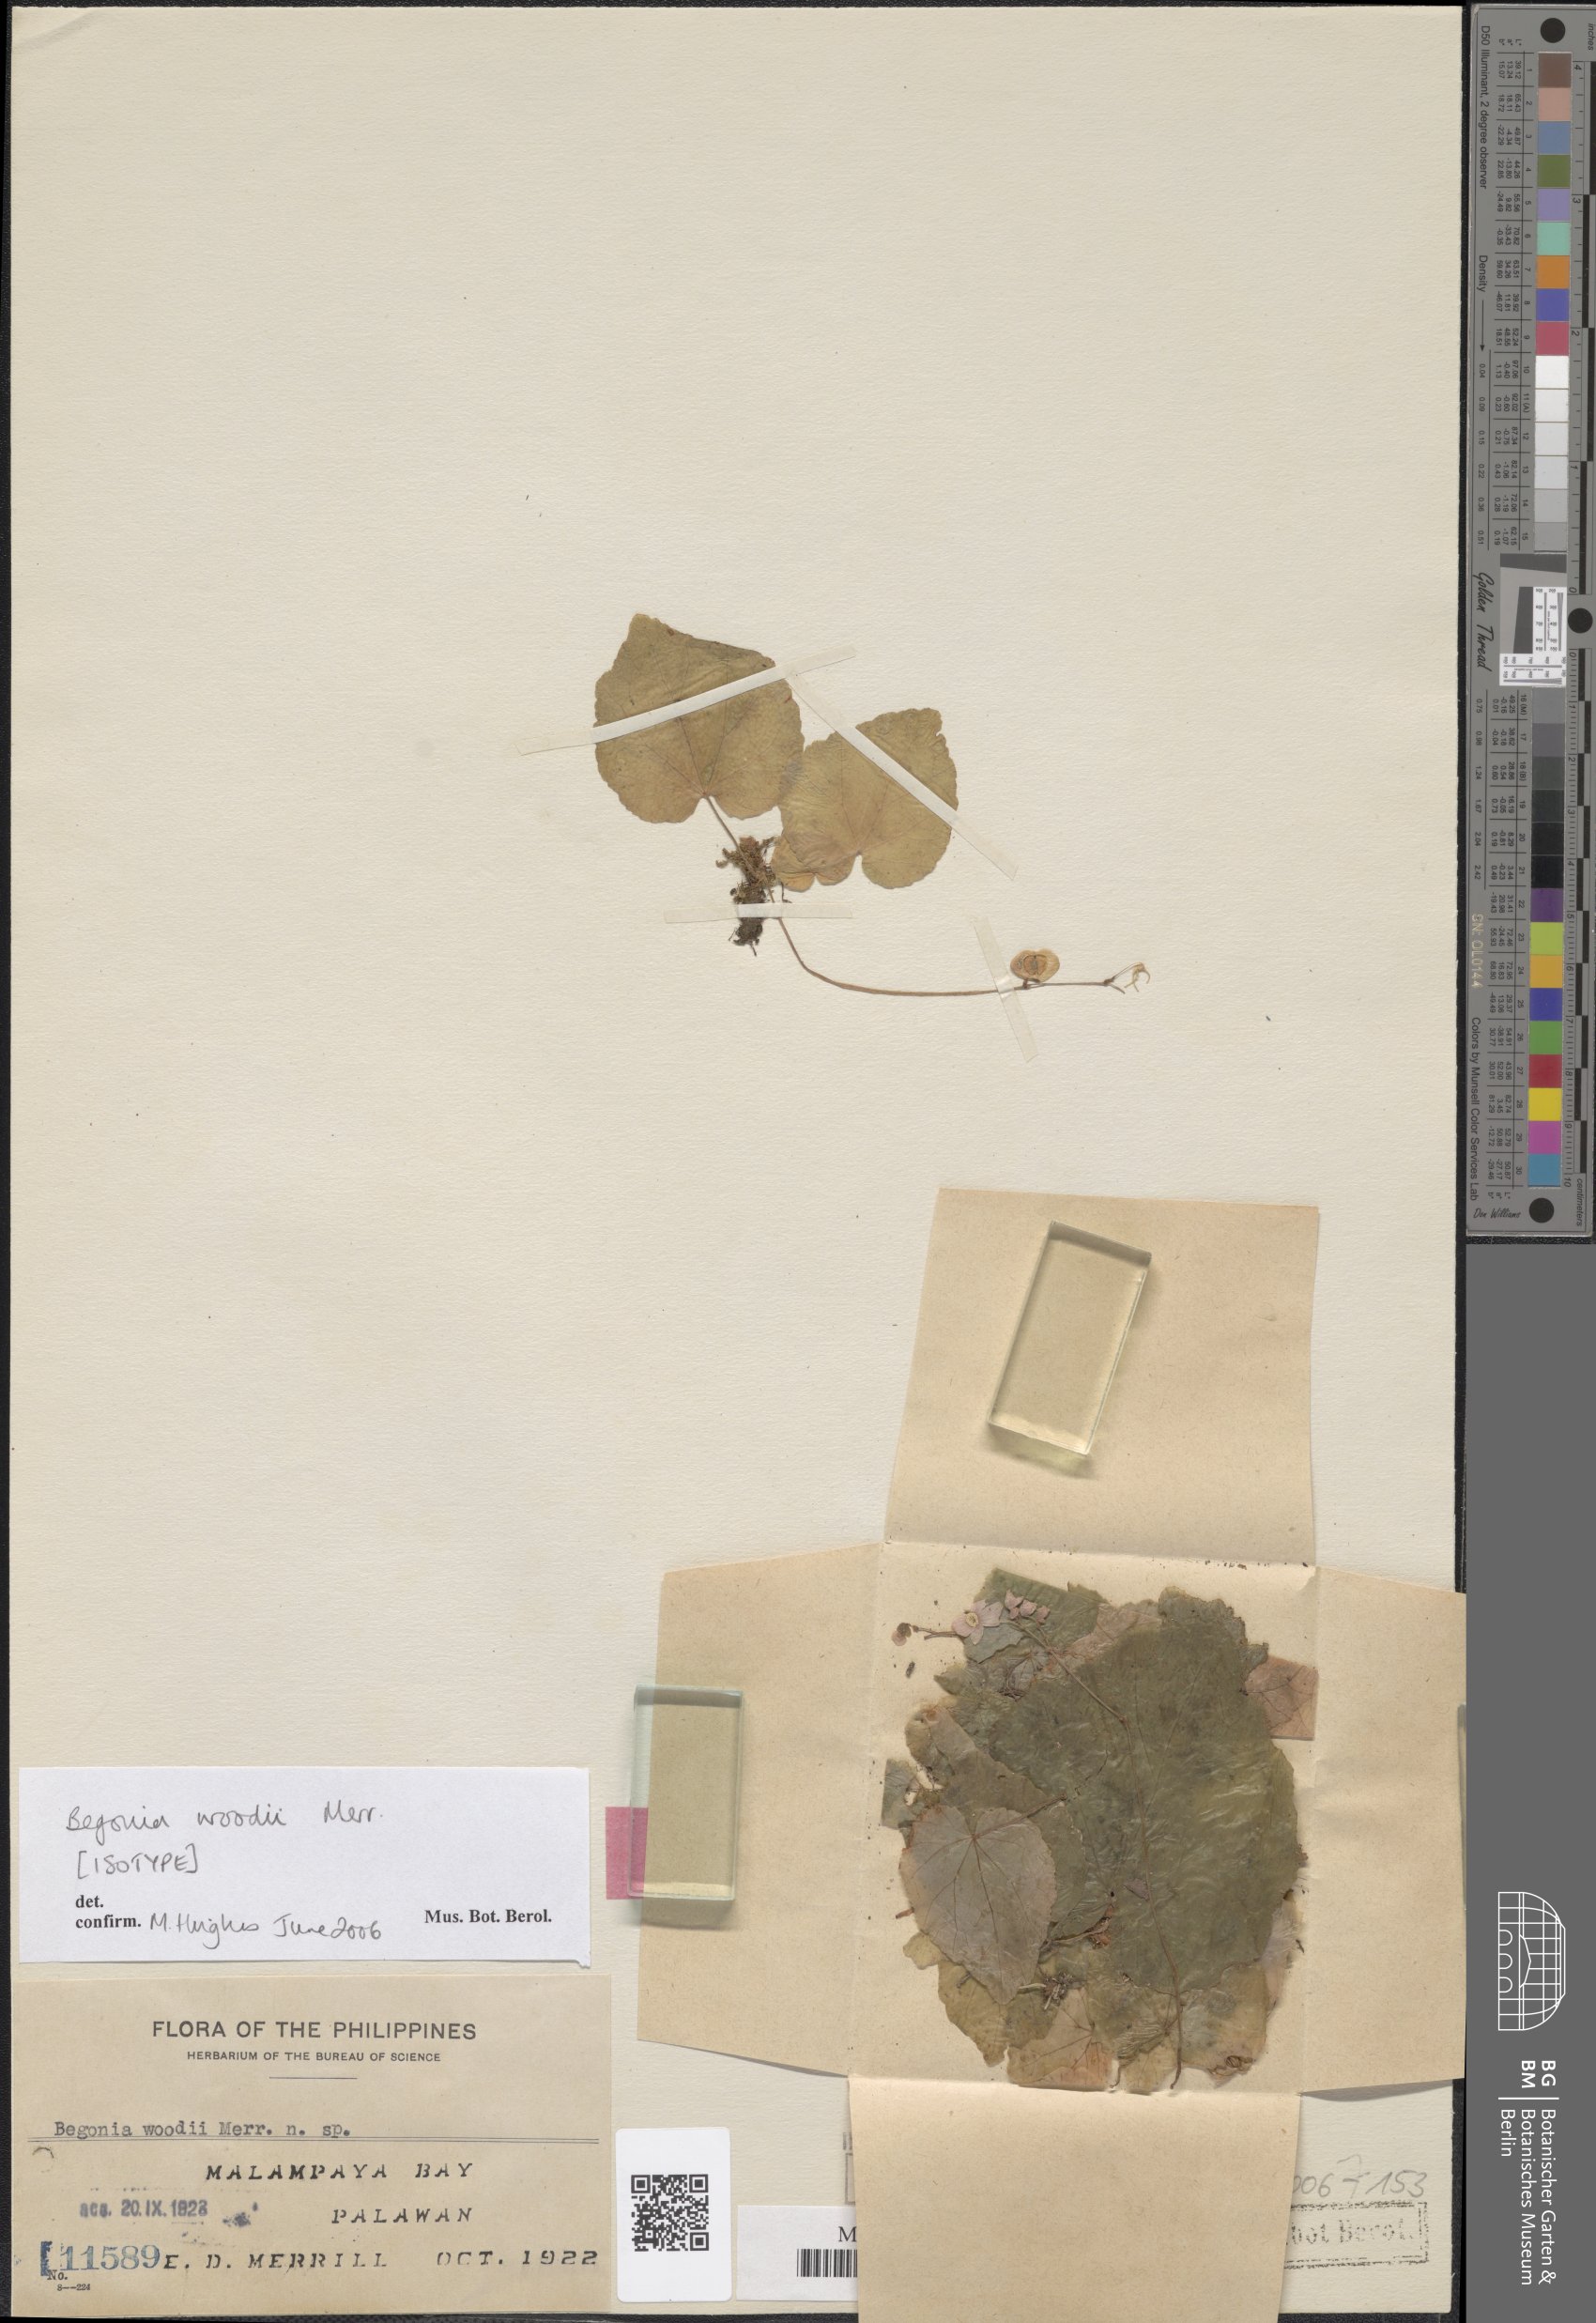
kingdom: Plantae
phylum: Tracheophyta
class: Magnoliopsida
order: Cucurbitales
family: Begoniaceae
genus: Begonia
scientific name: Begonia woodii
